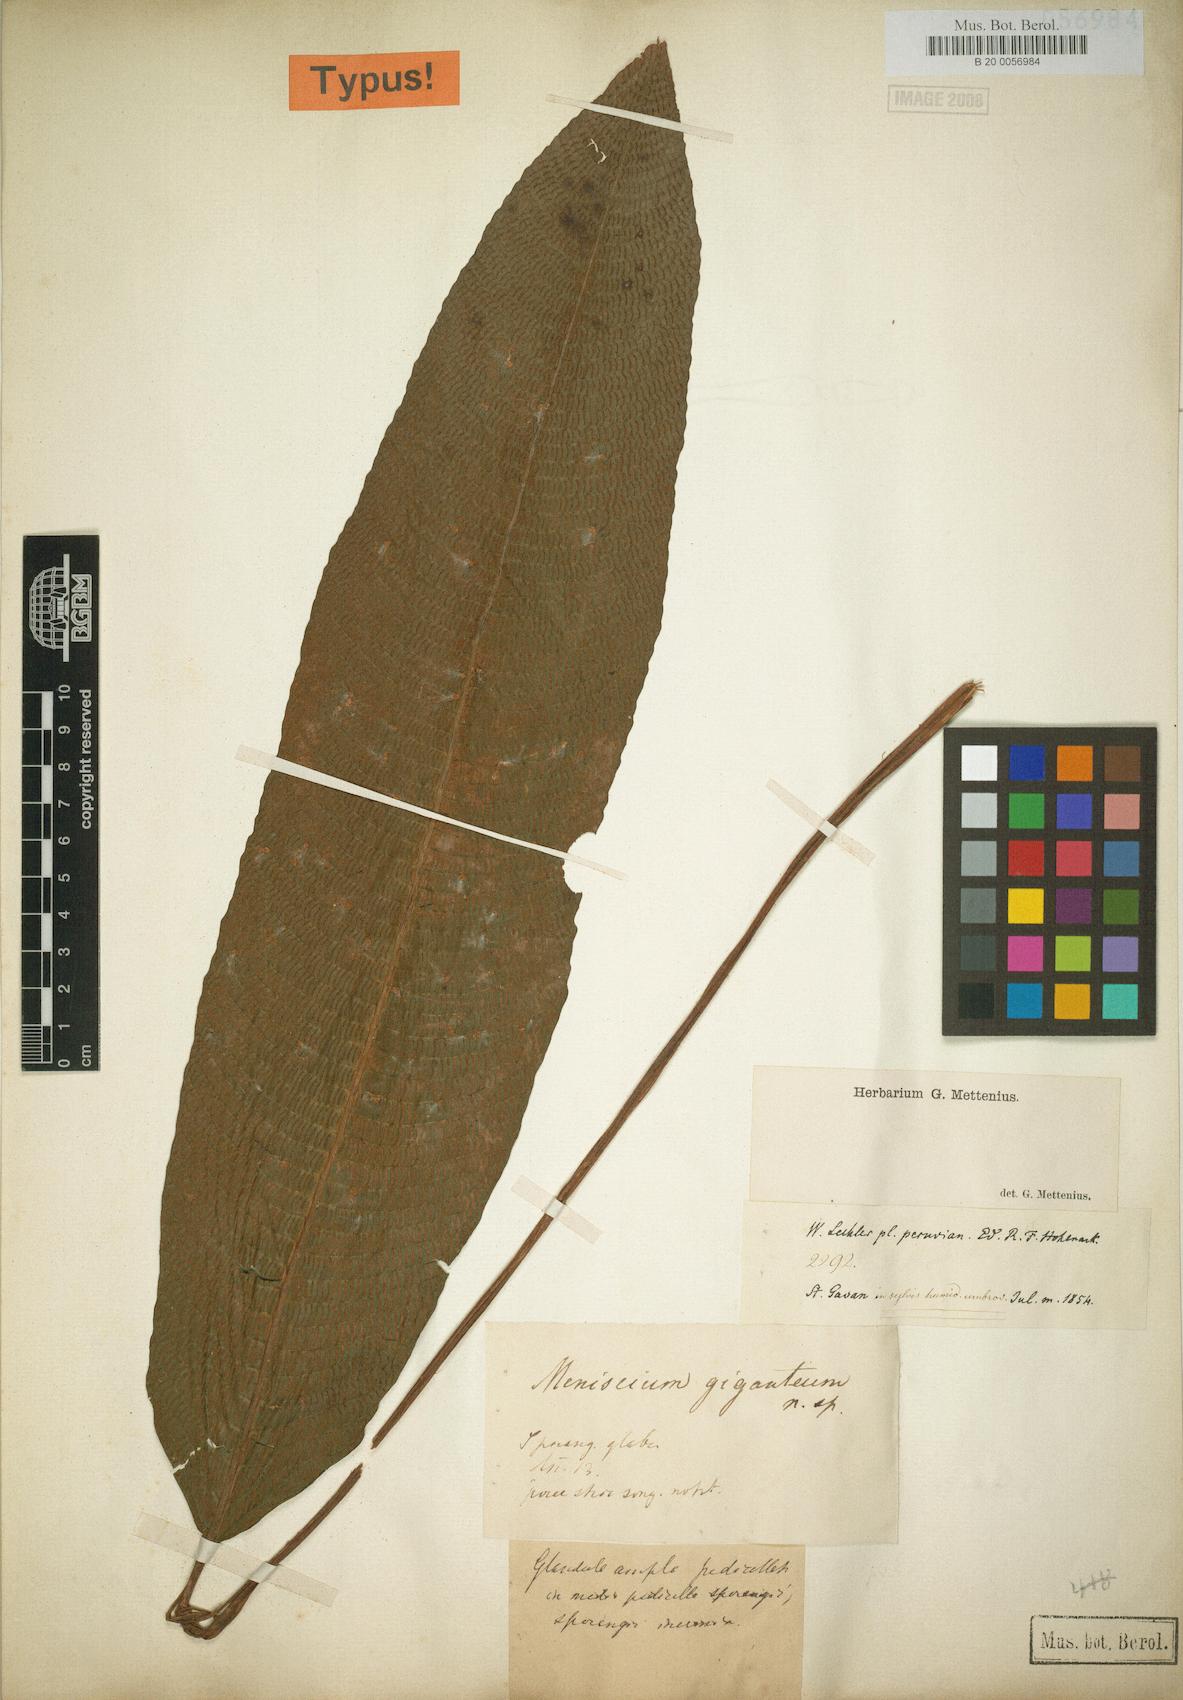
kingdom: Plantae
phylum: Tracheophyta
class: Polypodiopsida
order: Polypodiales
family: Thelypteridaceae
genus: Meniscium
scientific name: Meniscium giganteum
